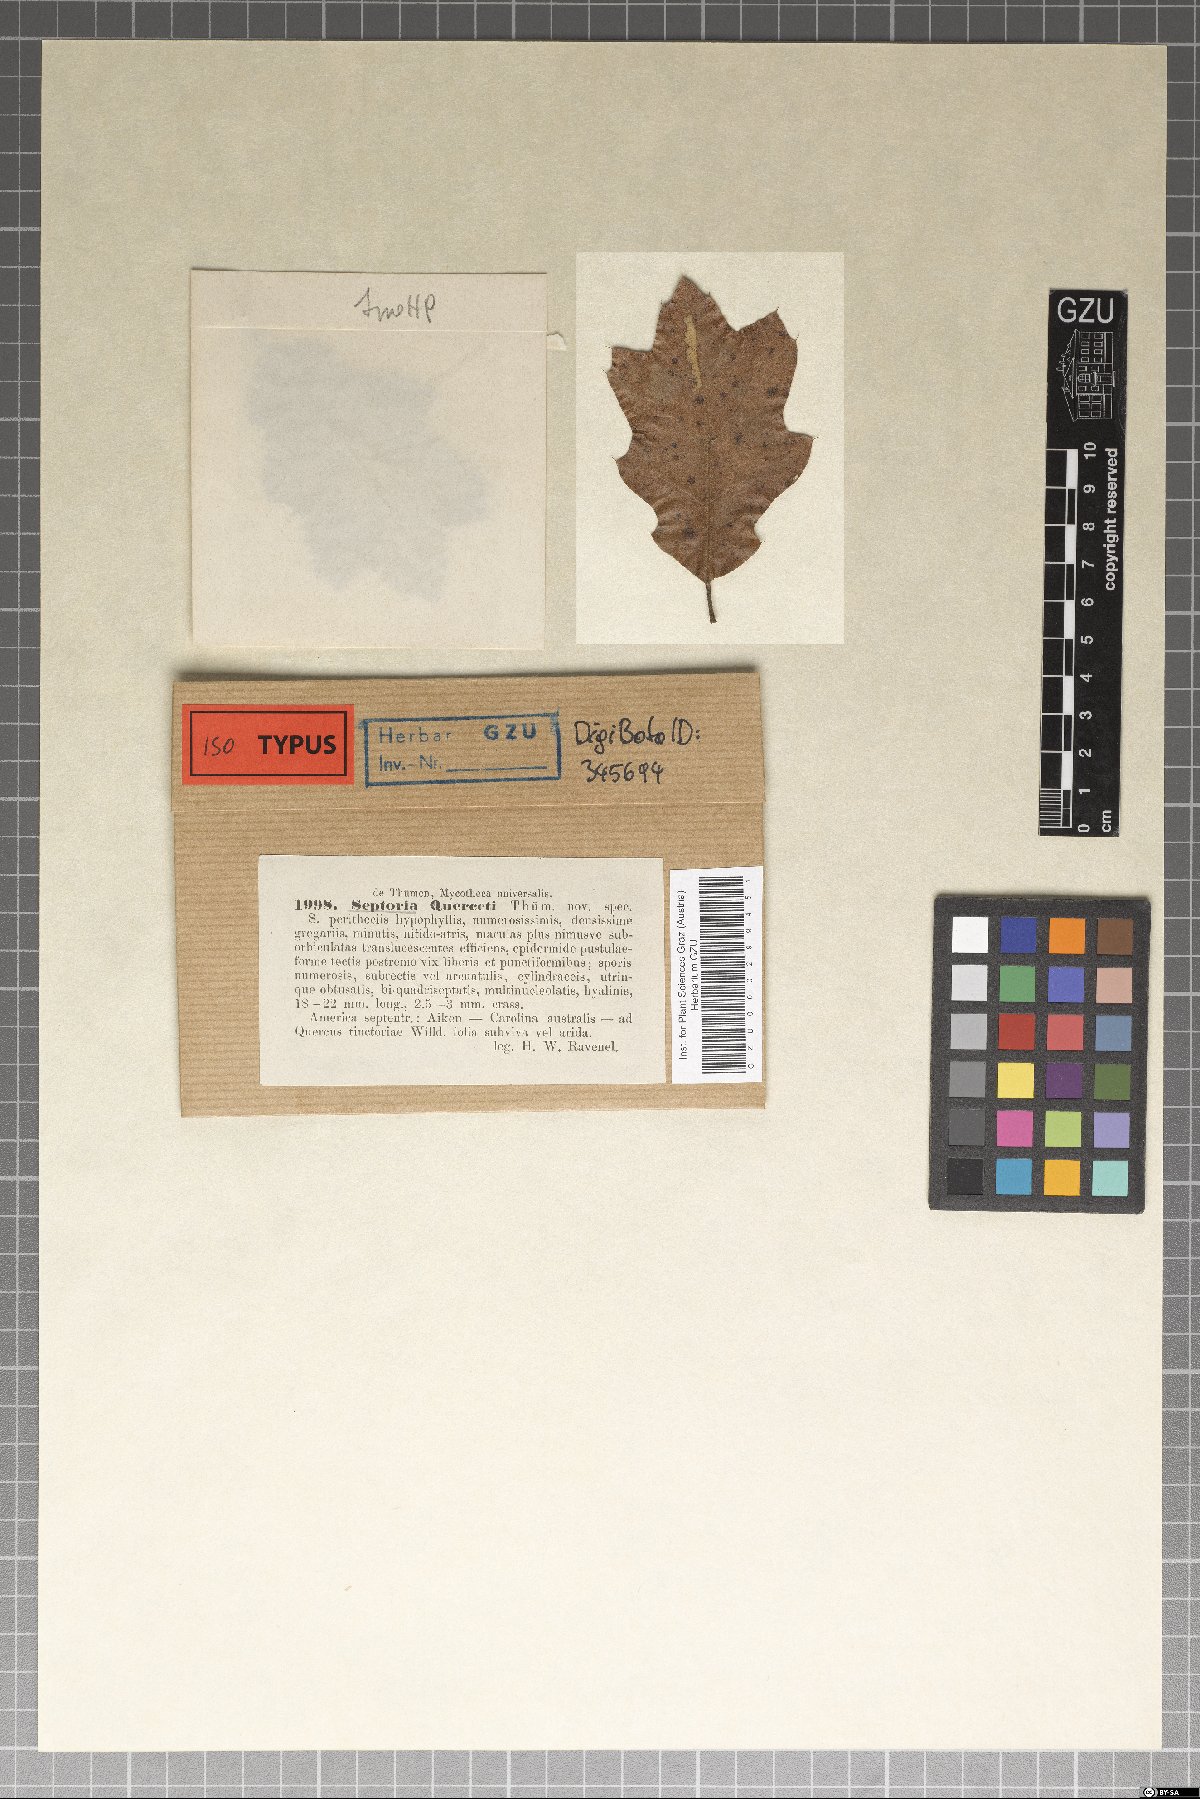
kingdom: Fungi
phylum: Ascomycota
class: Dothideomycetes
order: Mycosphaerellales
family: Mycosphaerellaceae
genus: Septoria
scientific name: Septoria querceti
